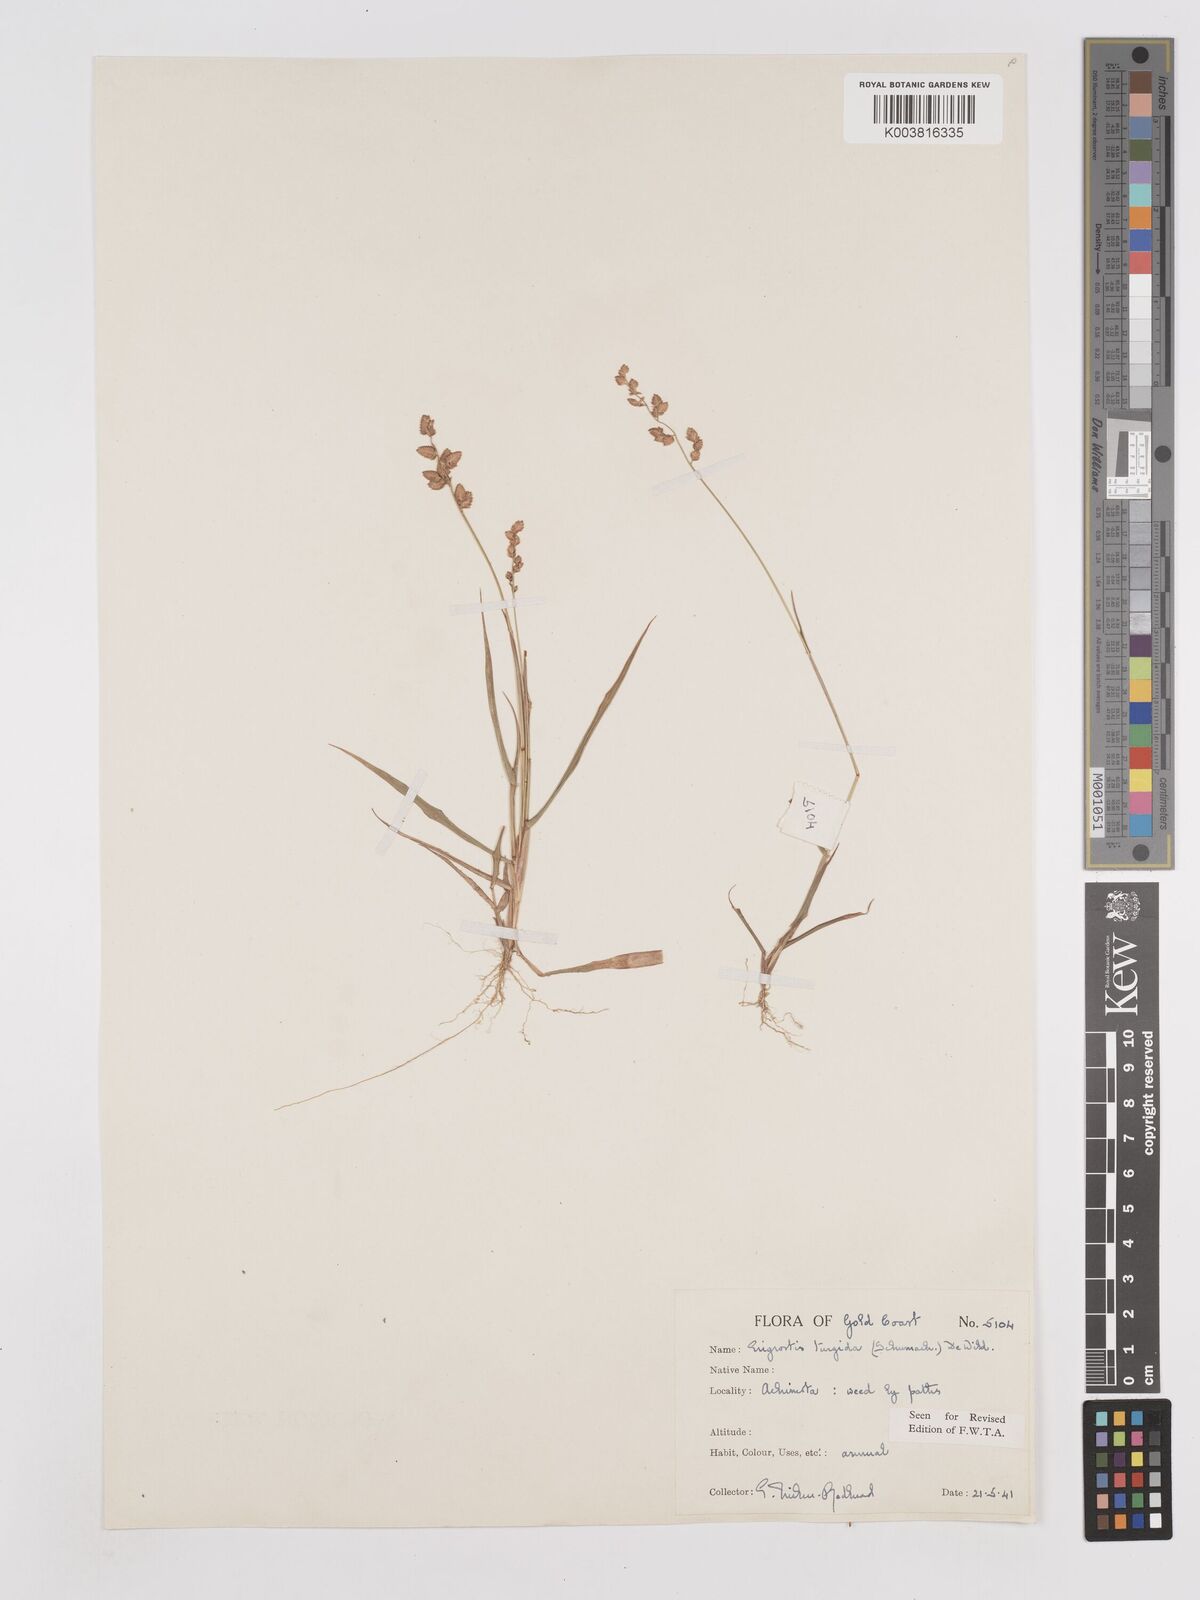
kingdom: Plantae
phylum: Tracheophyta
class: Liliopsida
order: Poales
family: Poaceae
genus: Eragrostis
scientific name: Eragrostis turgida
